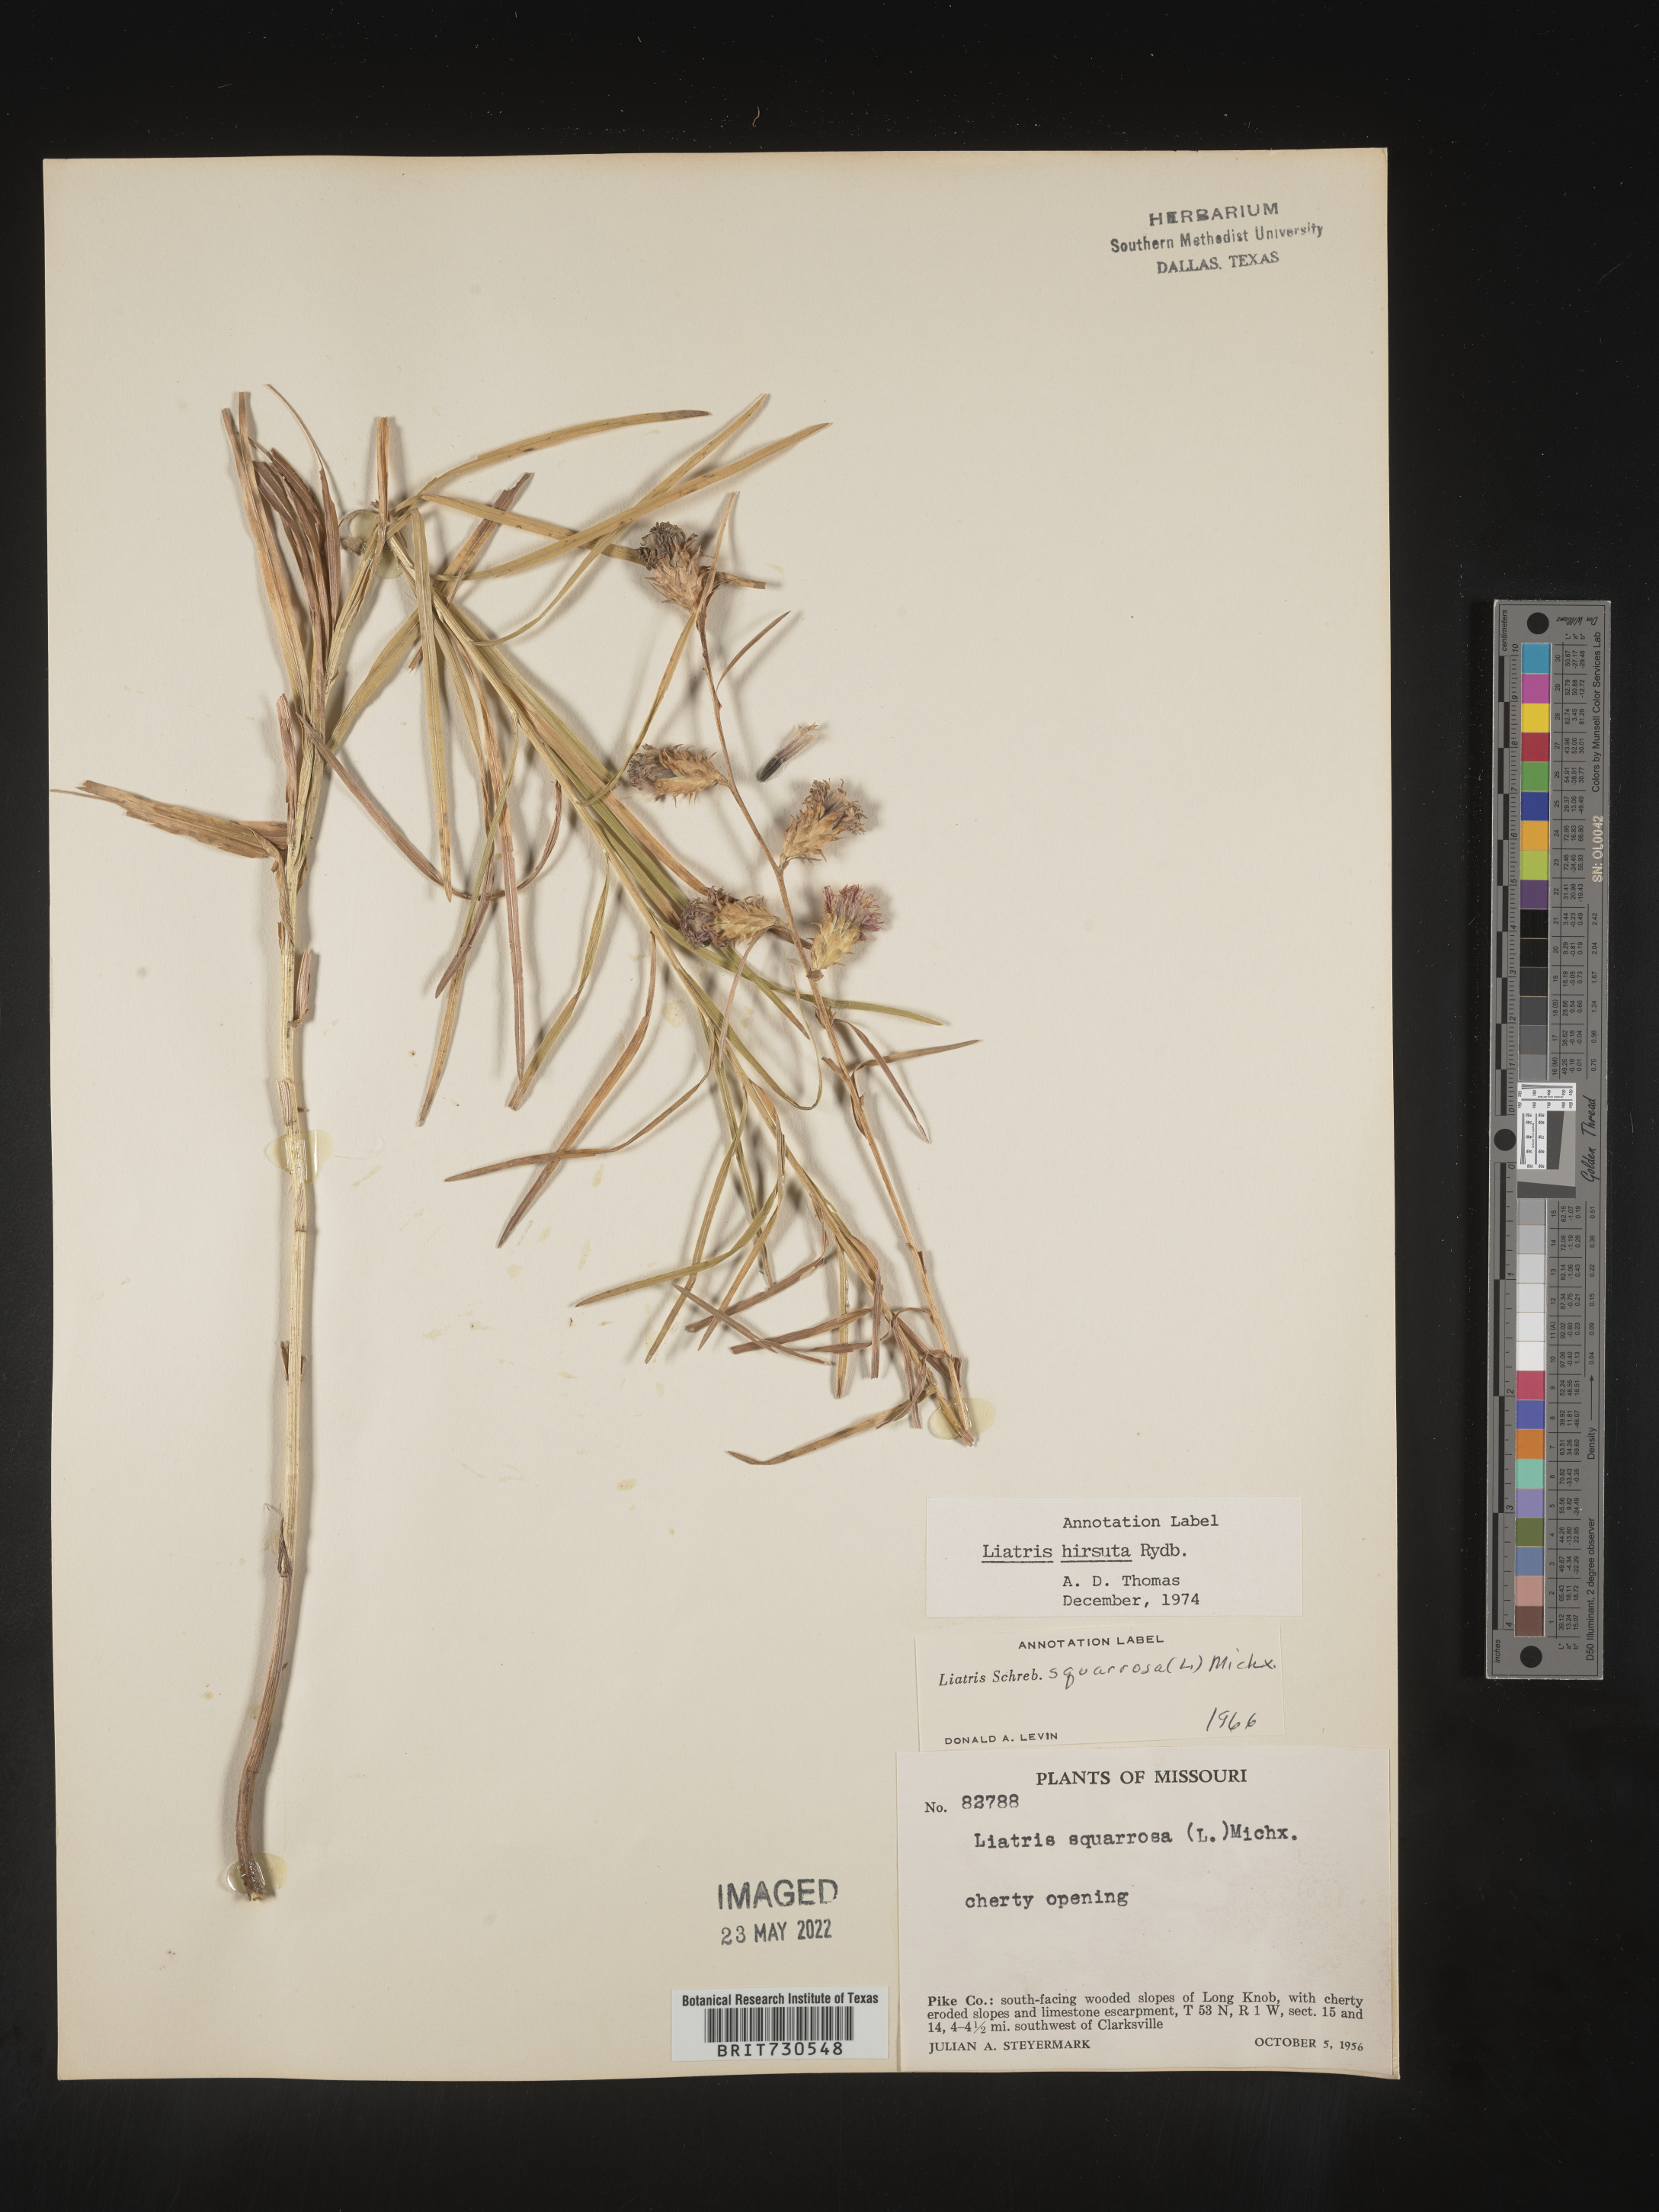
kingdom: Plantae
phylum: Tracheophyta
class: Magnoliopsida
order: Asterales
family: Asteraceae
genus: Liatris
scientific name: Liatris hirsuta
